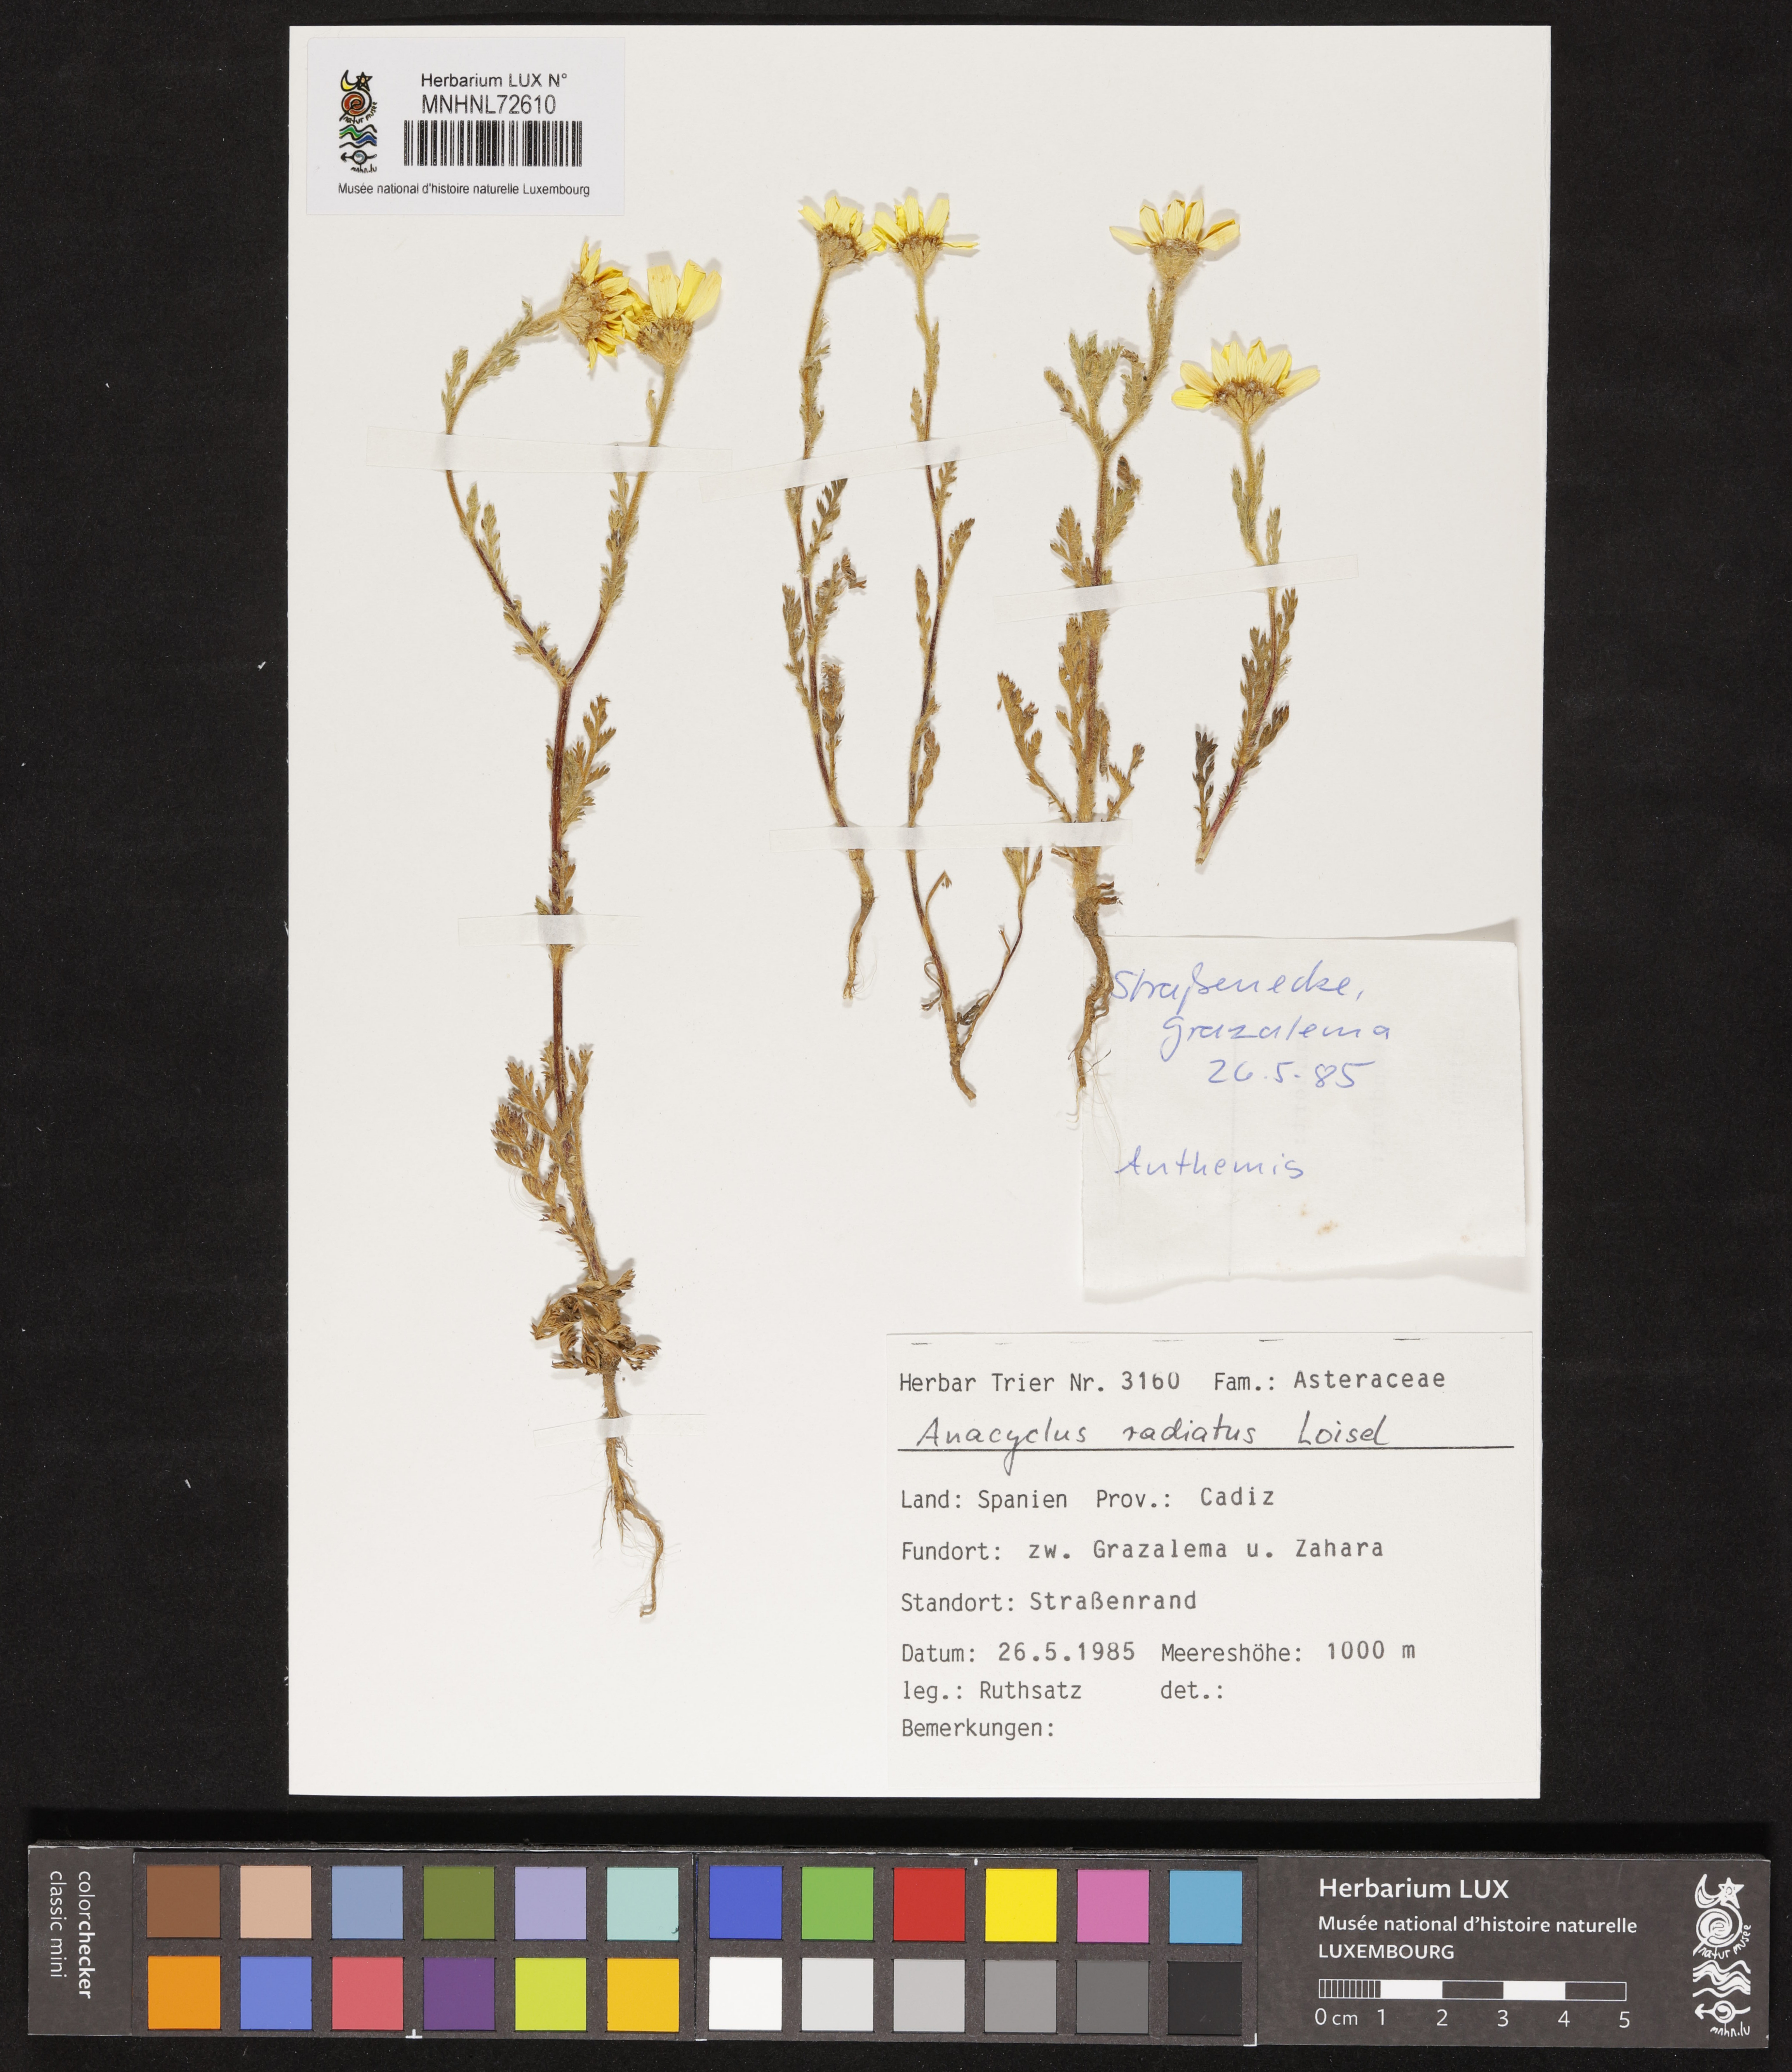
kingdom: Plantae
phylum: Tracheophyta
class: Magnoliopsida
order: Asterales
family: Asteraceae
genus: Anacyclus
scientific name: Anacyclus radiatus
